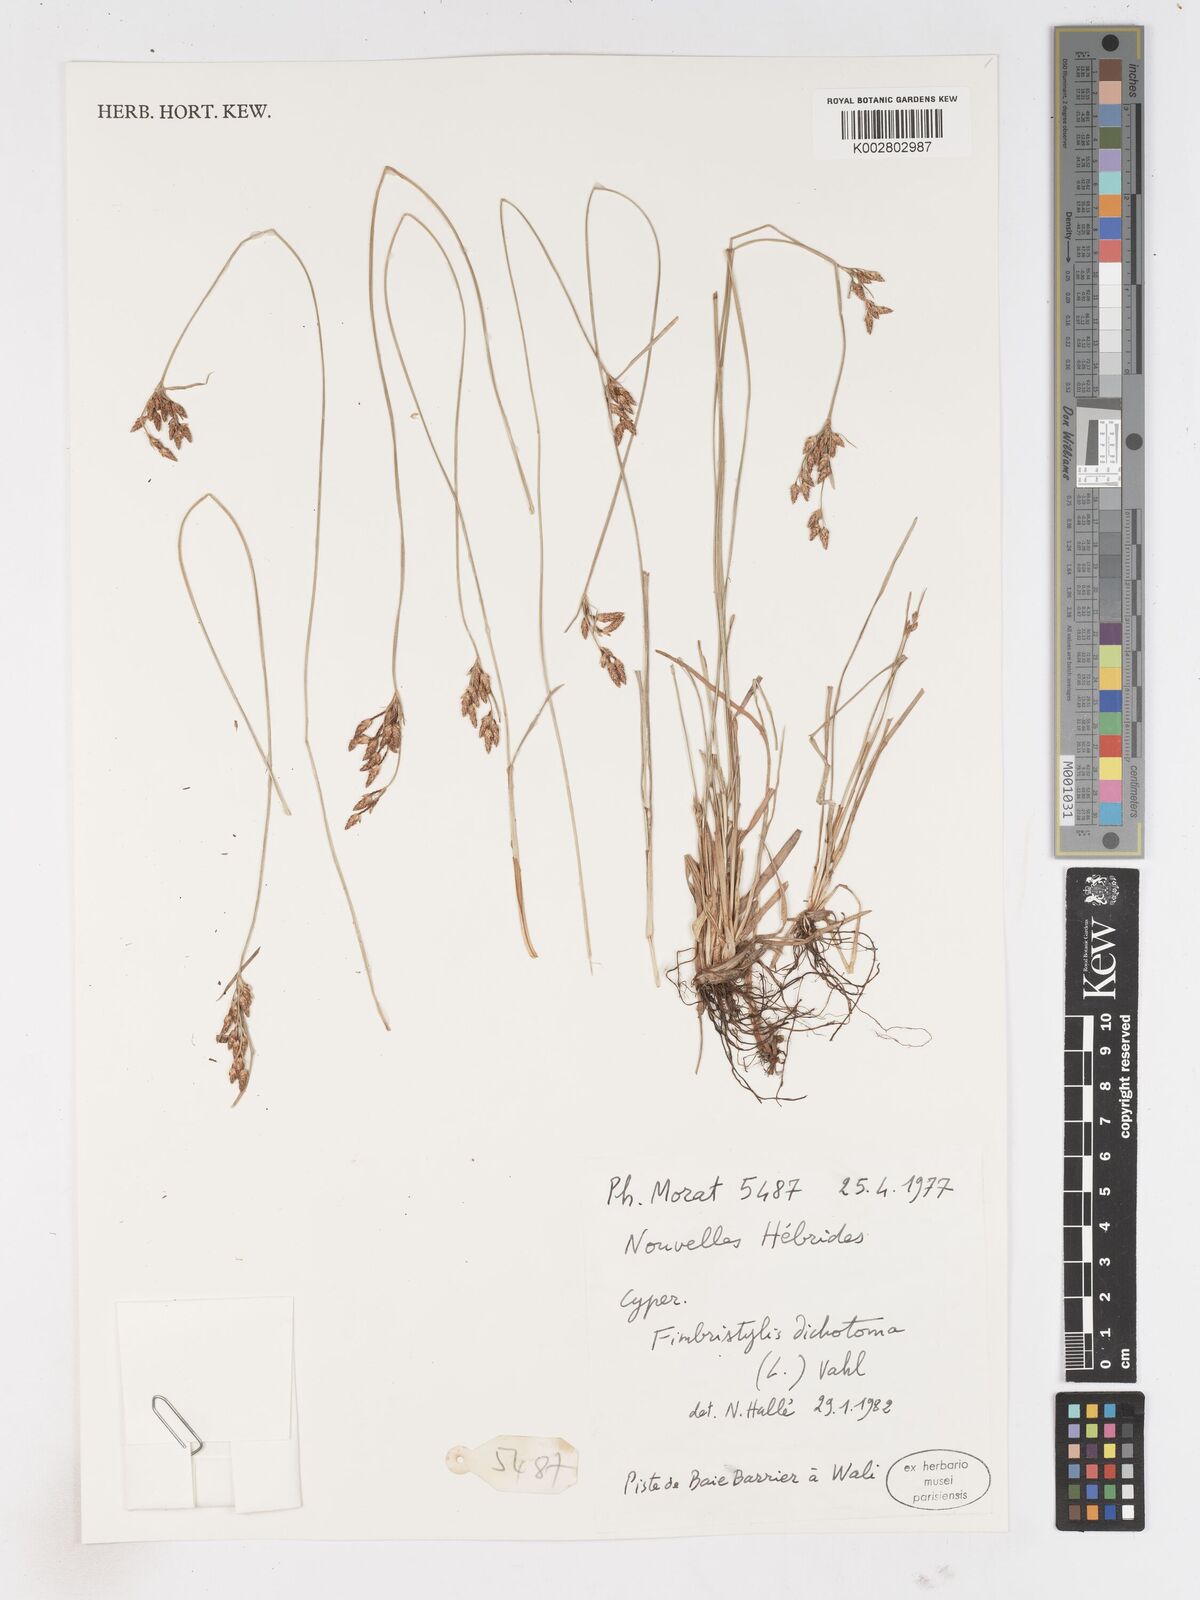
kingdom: Plantae
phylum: Tracheophyta
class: Liliopsida
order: Poales
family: Cyperaceae
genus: Fimbristylis
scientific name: Fimbristylis dichotoma
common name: Forked fimbry
